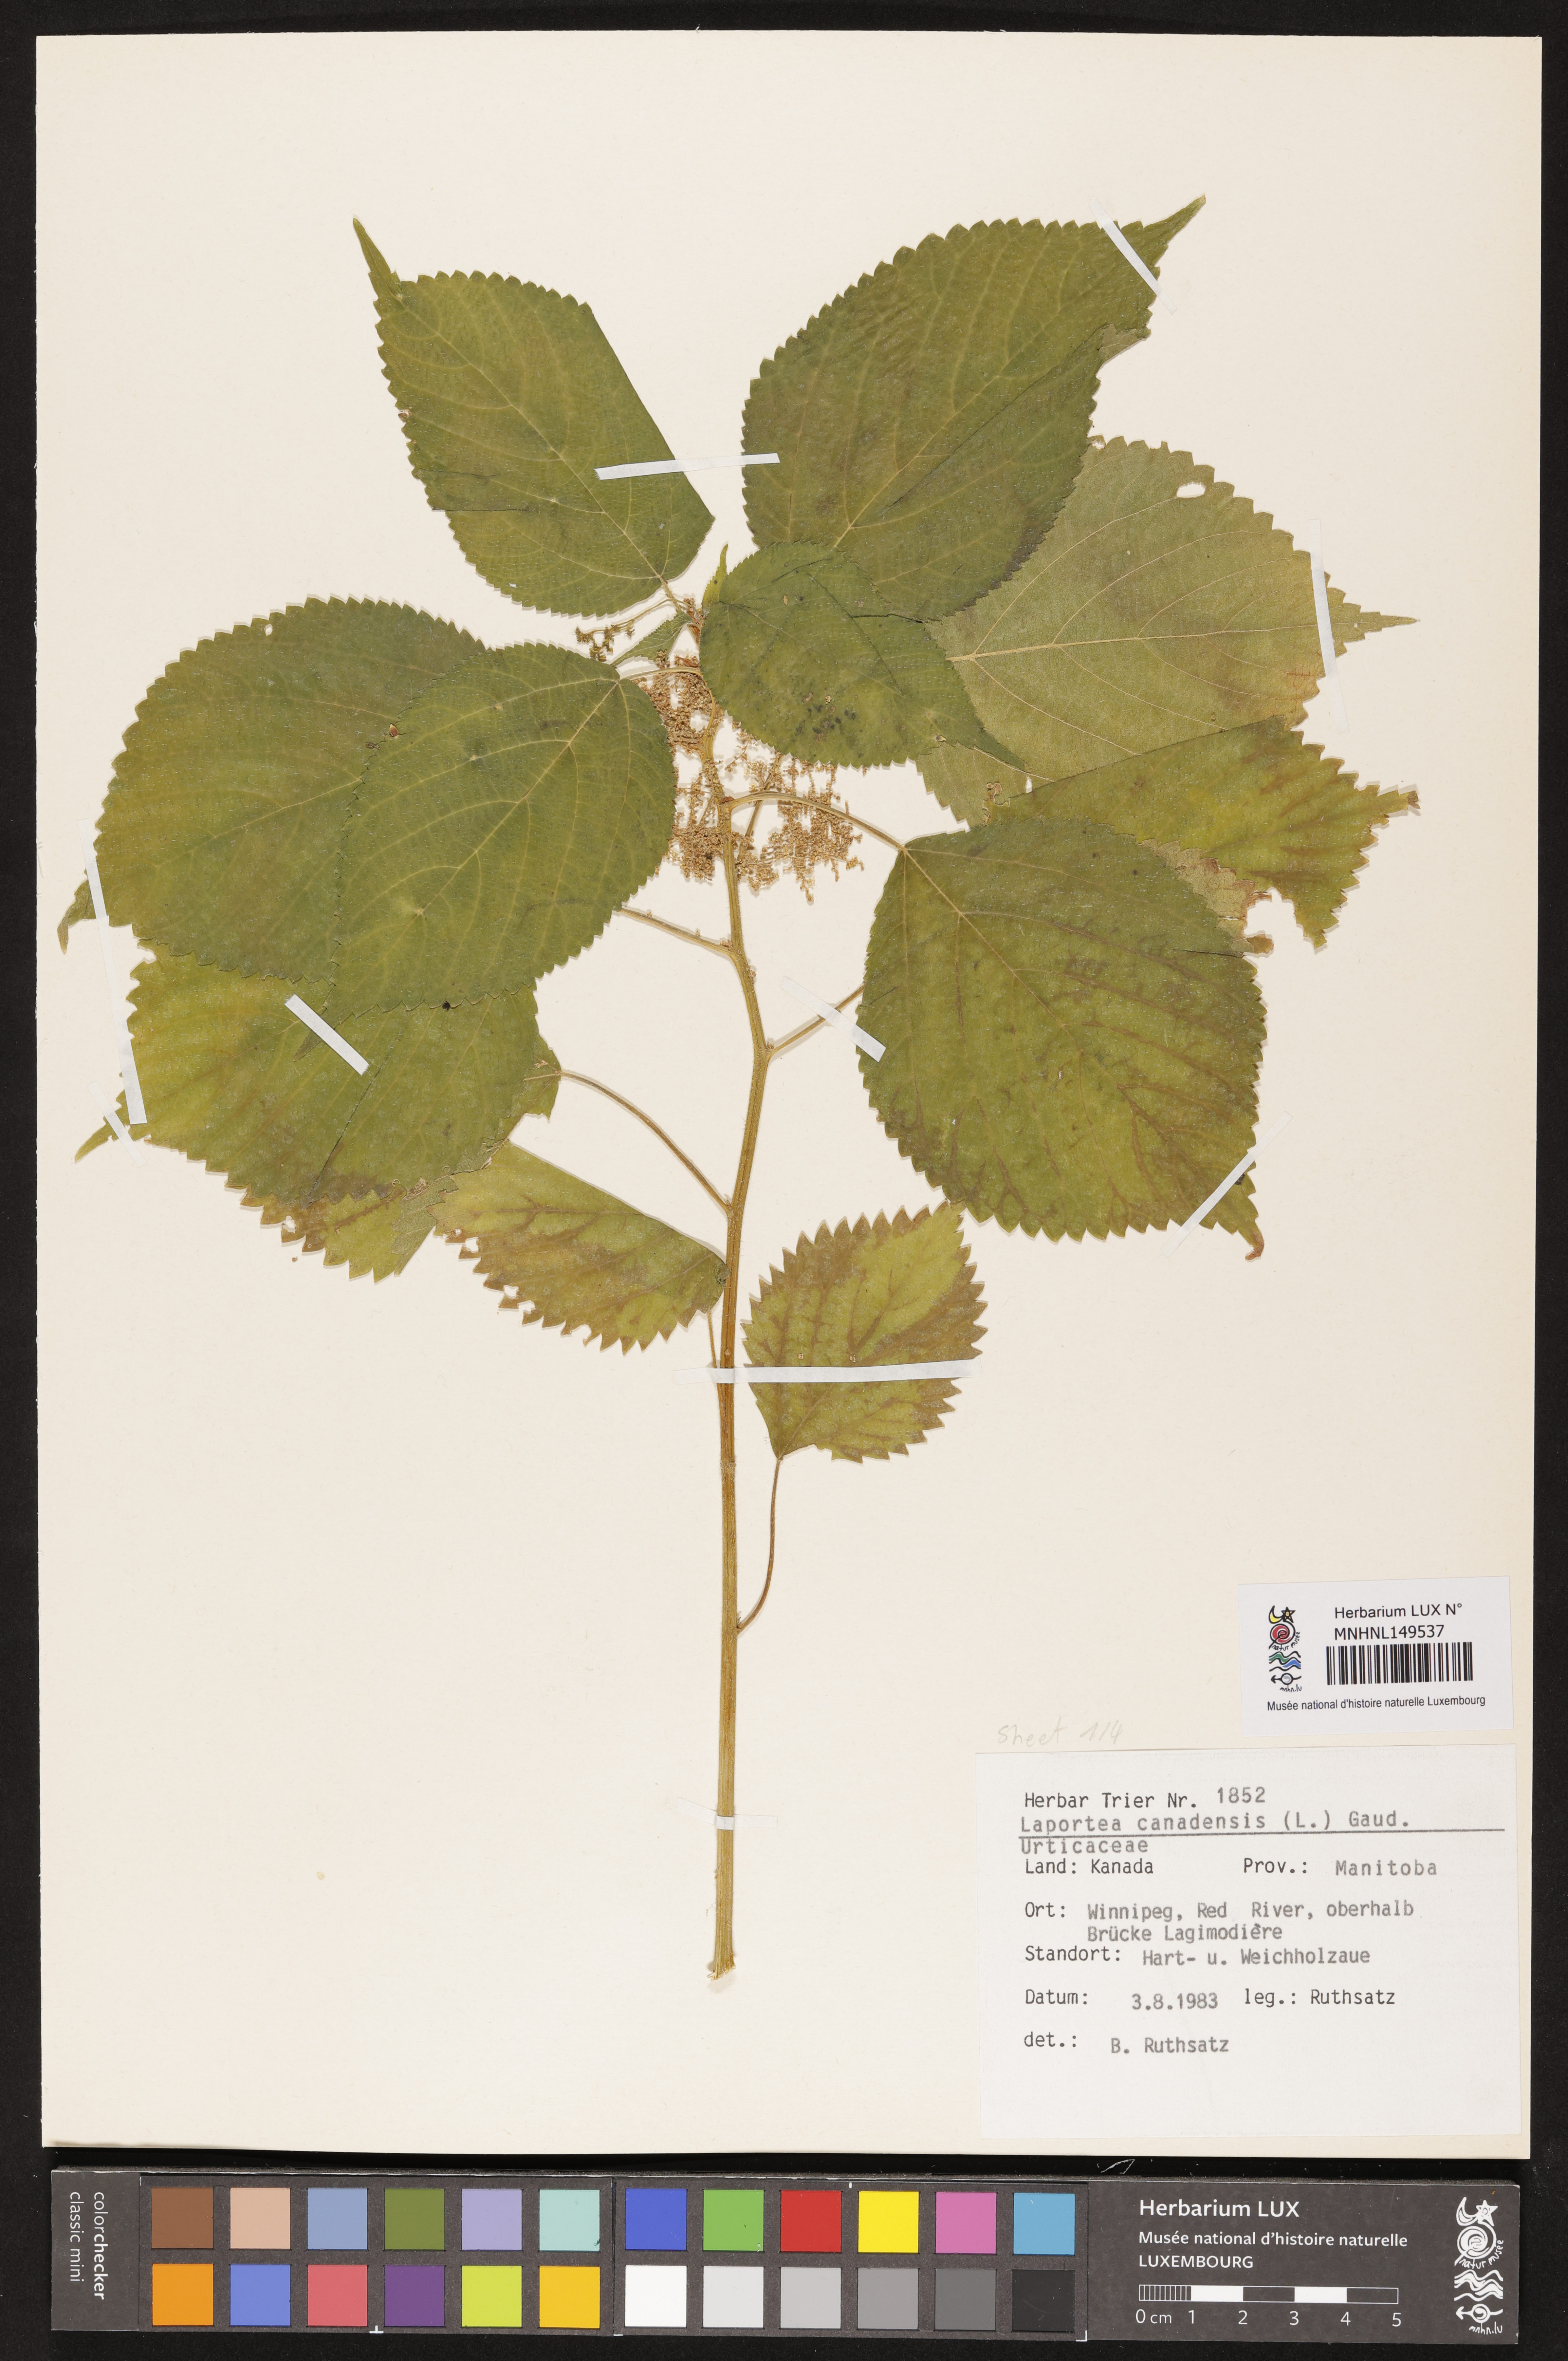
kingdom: Plantae
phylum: Tracheophyta
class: Magnoliopsida
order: Rosales
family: Urticaceae
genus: Laportea
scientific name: Laportea canadensis
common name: Canada nettle
